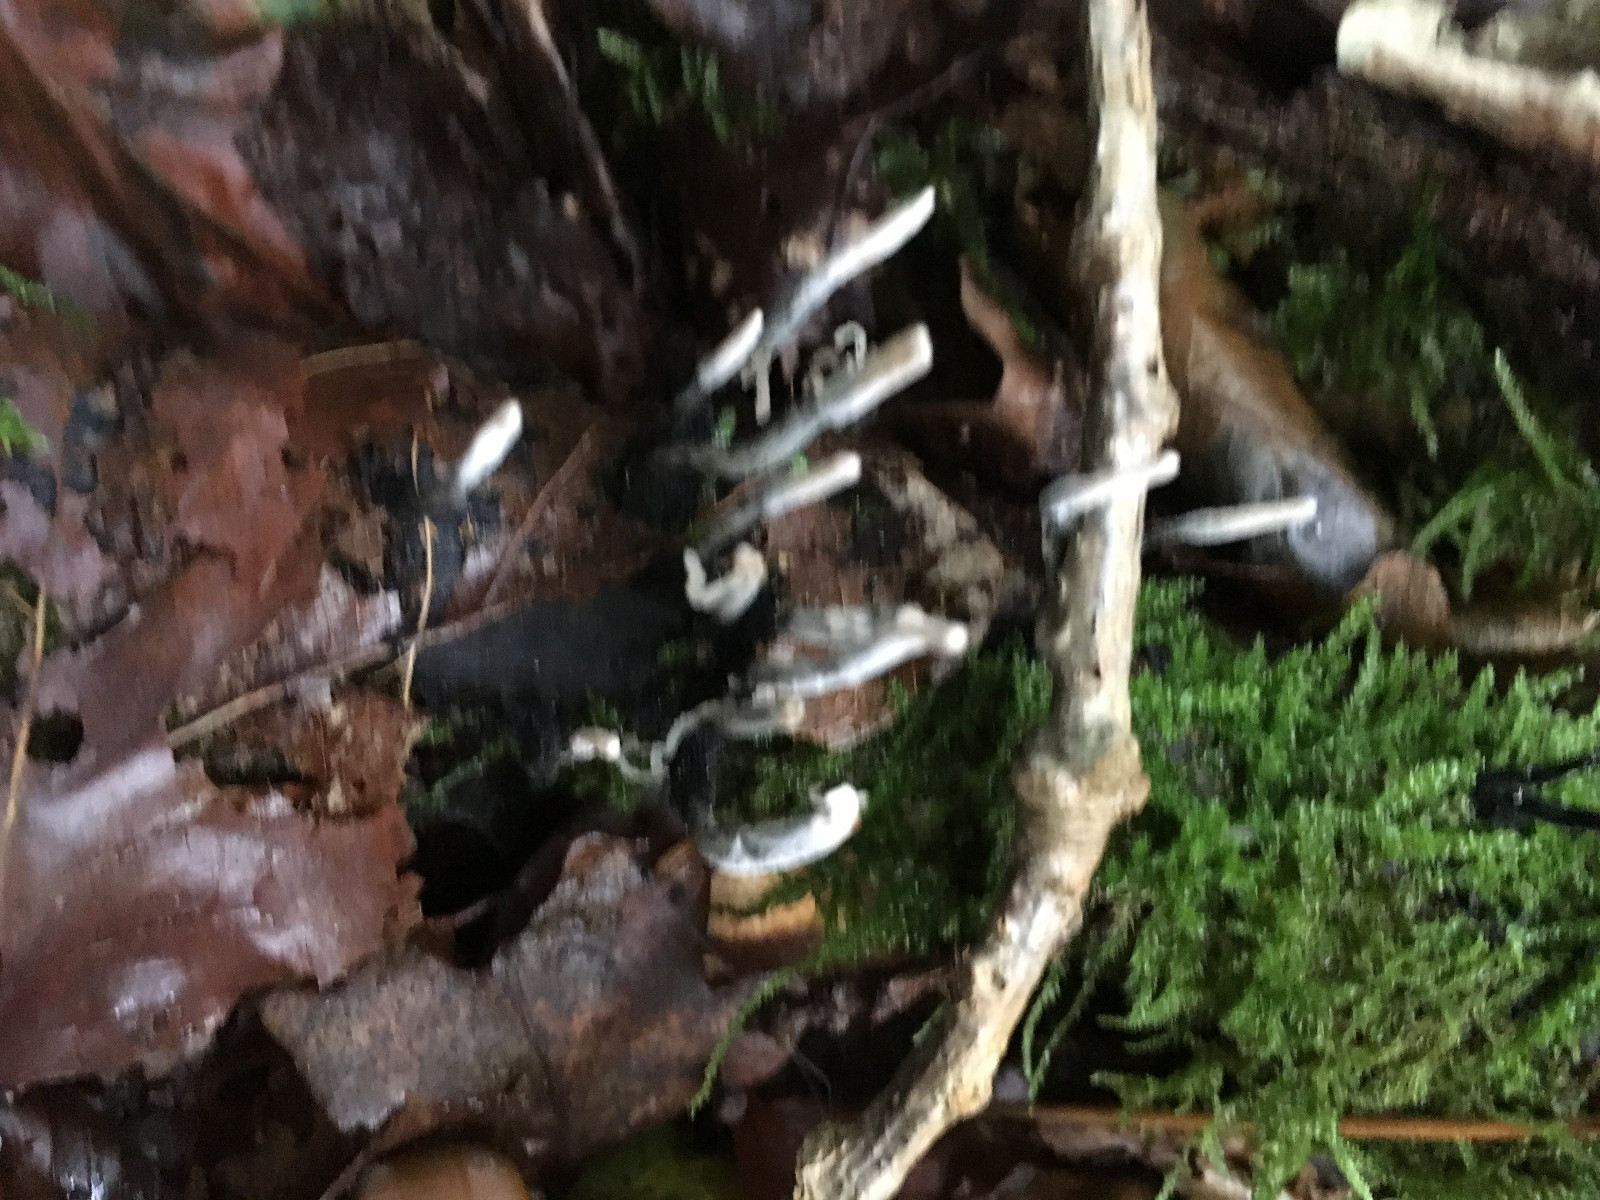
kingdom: Fungi
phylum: Ascomycota
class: Sordariomycetes
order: Xylariales
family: Xylariaceae
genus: Xylaria
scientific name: Xylaria hypoxylon
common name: grenet stødsvamp
